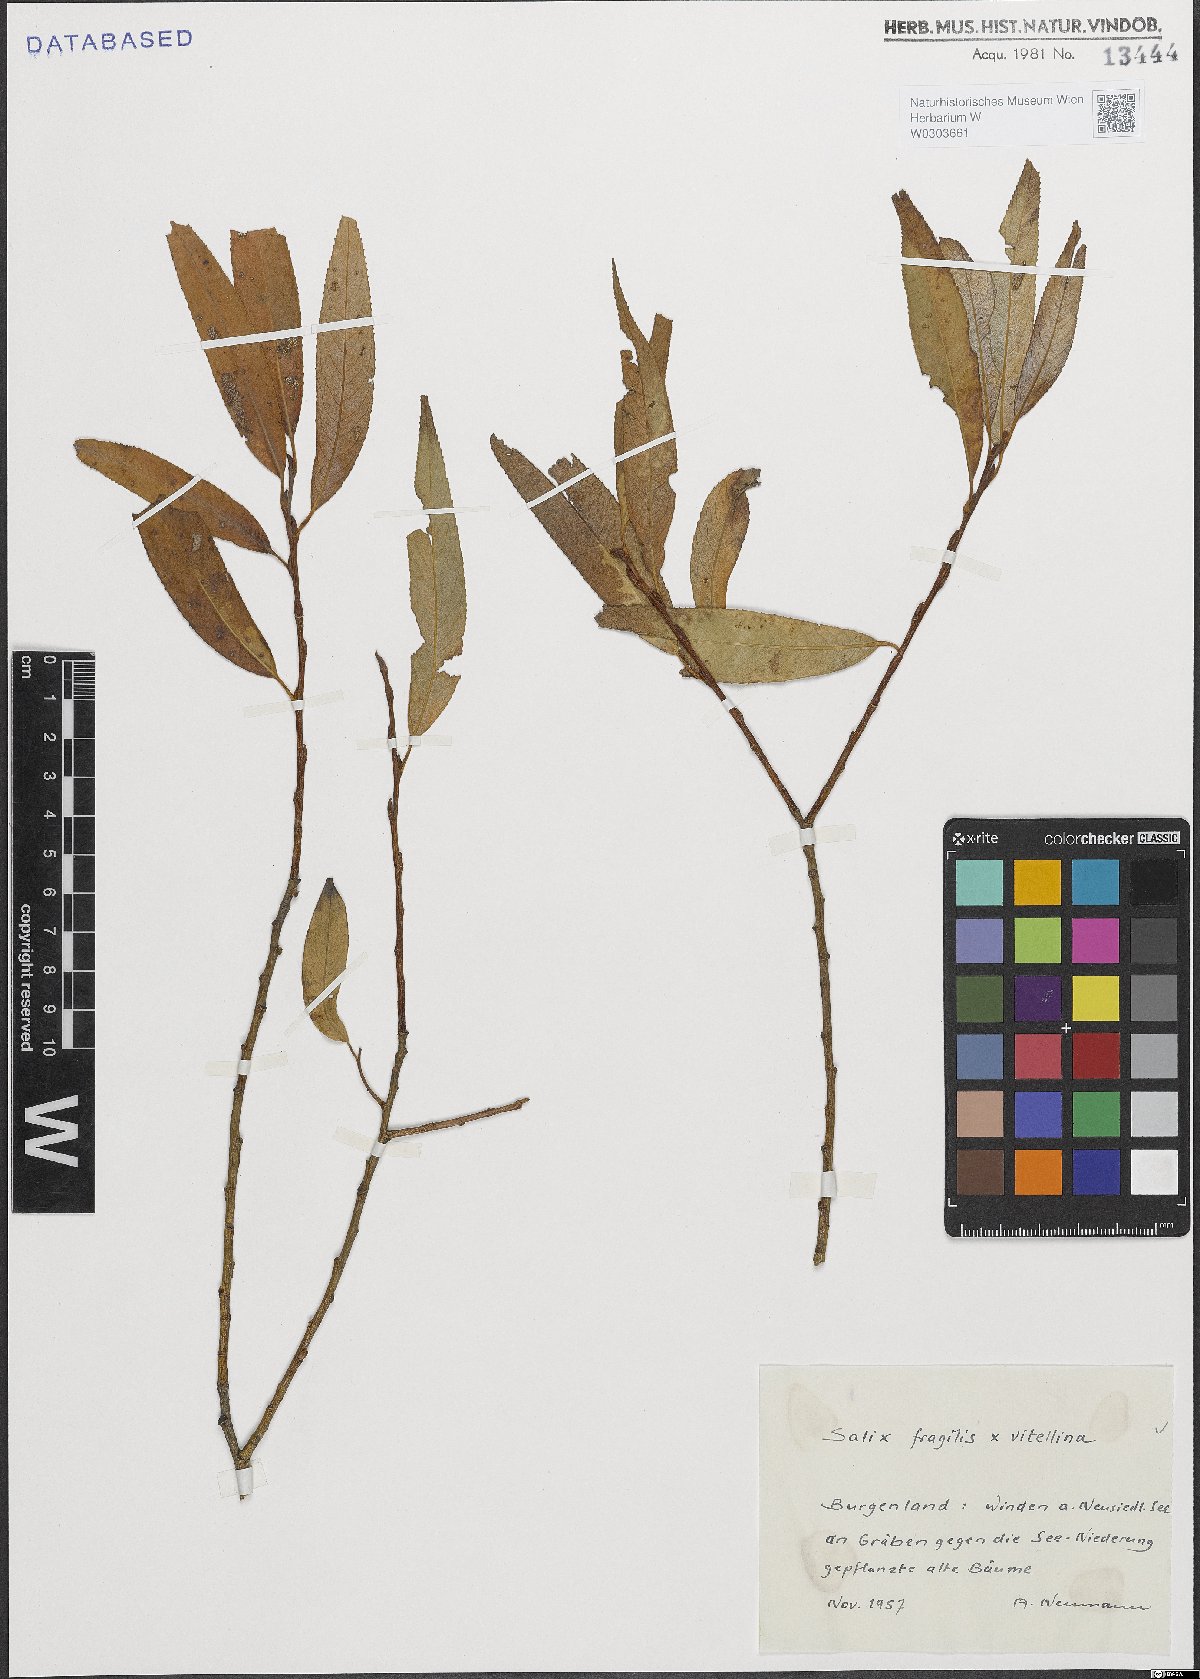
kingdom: Plantae
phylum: Tracheophyta
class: Magnoliopsida
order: Malpighiales
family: Salicaceae
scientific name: Salicaceae
